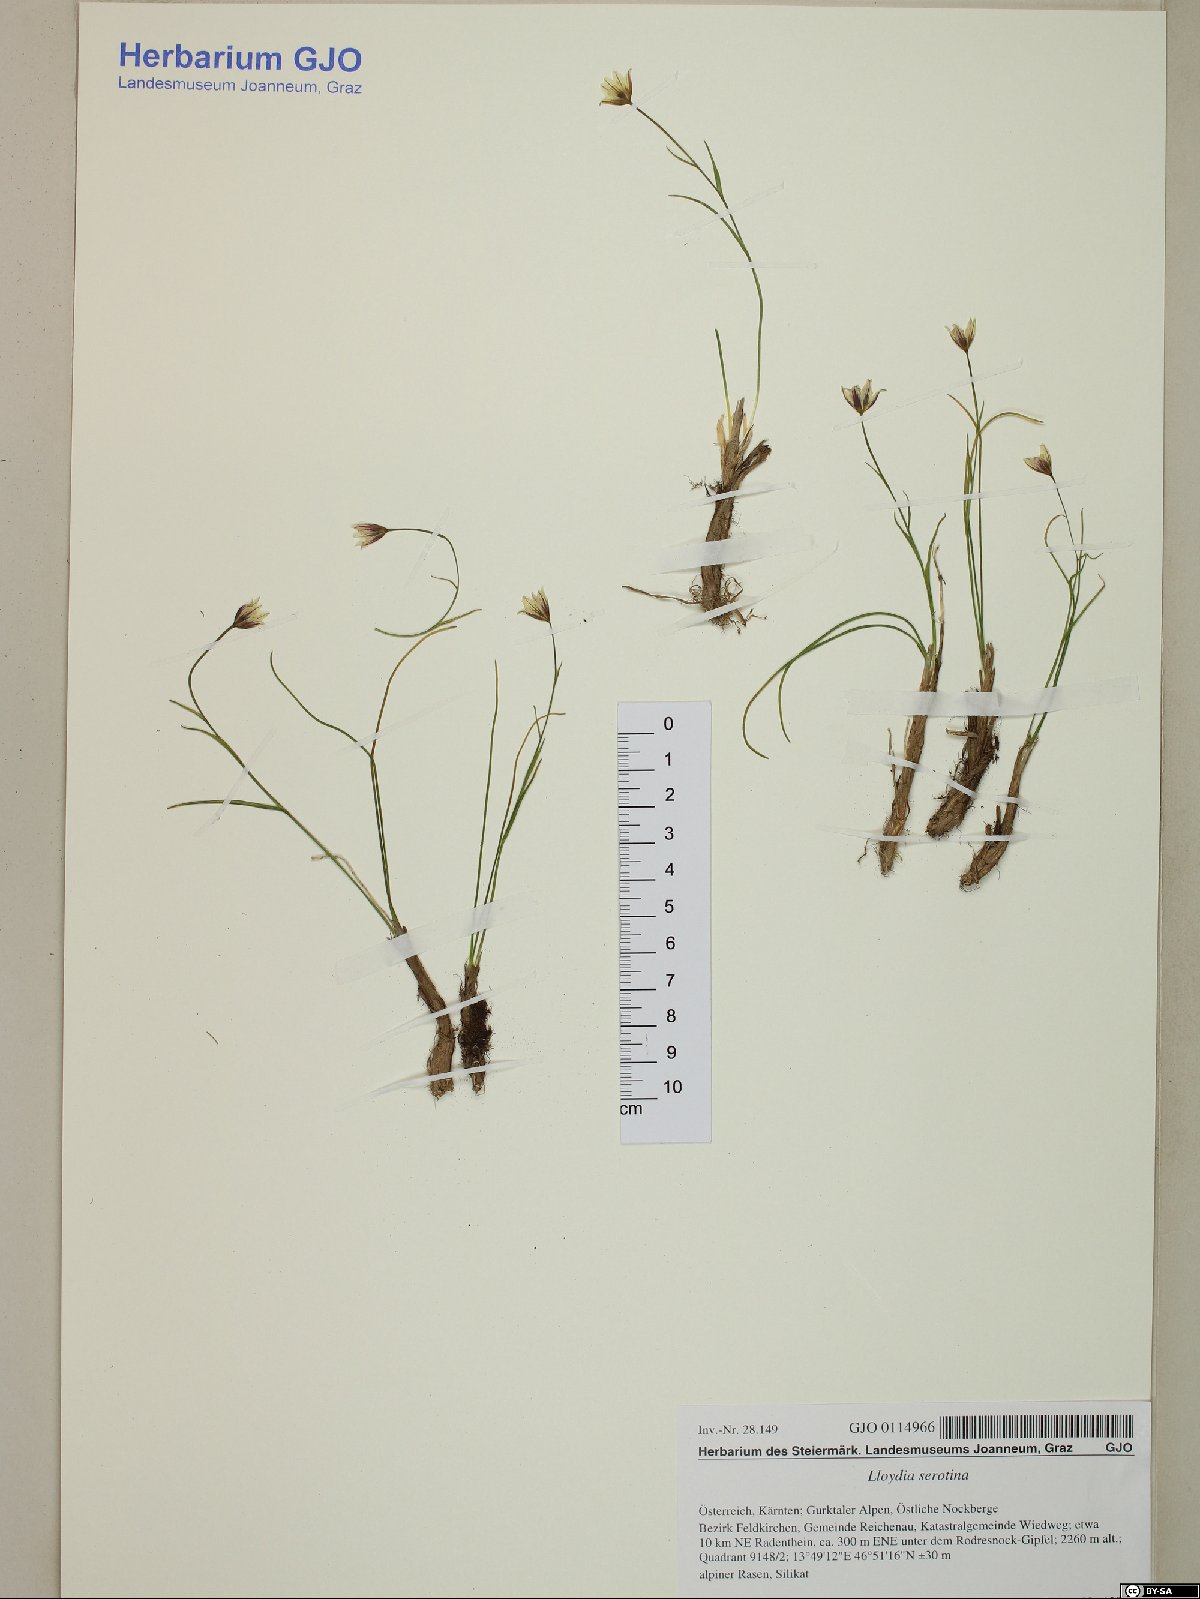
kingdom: Plantae
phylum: Tracheophyta
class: Liliopsida
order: Liliales
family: Liliaceae
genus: Gagea
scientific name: Gagea serotina
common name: Snowdon lily
